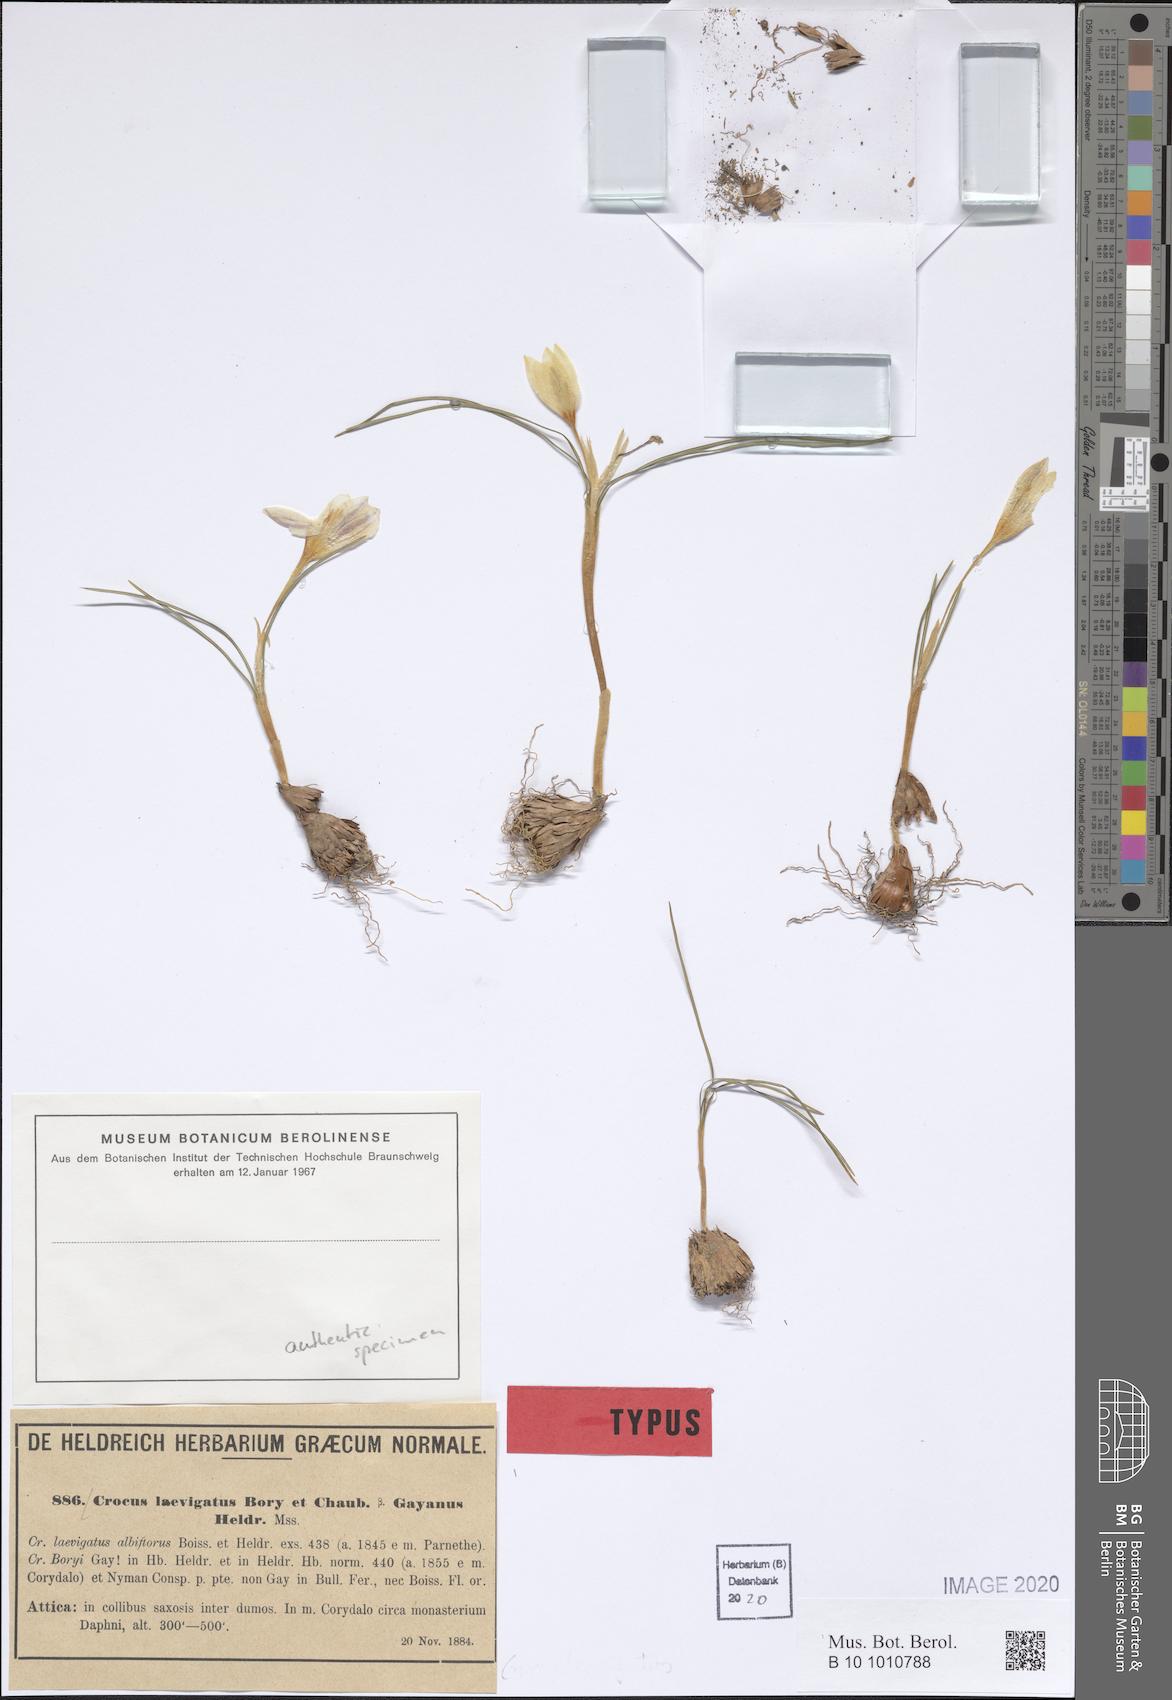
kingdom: Plantae
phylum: Tracheophyta
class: Liliopsida
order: Asparagales
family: Iridaceae
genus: Crocus
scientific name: Crocus laevigatus
